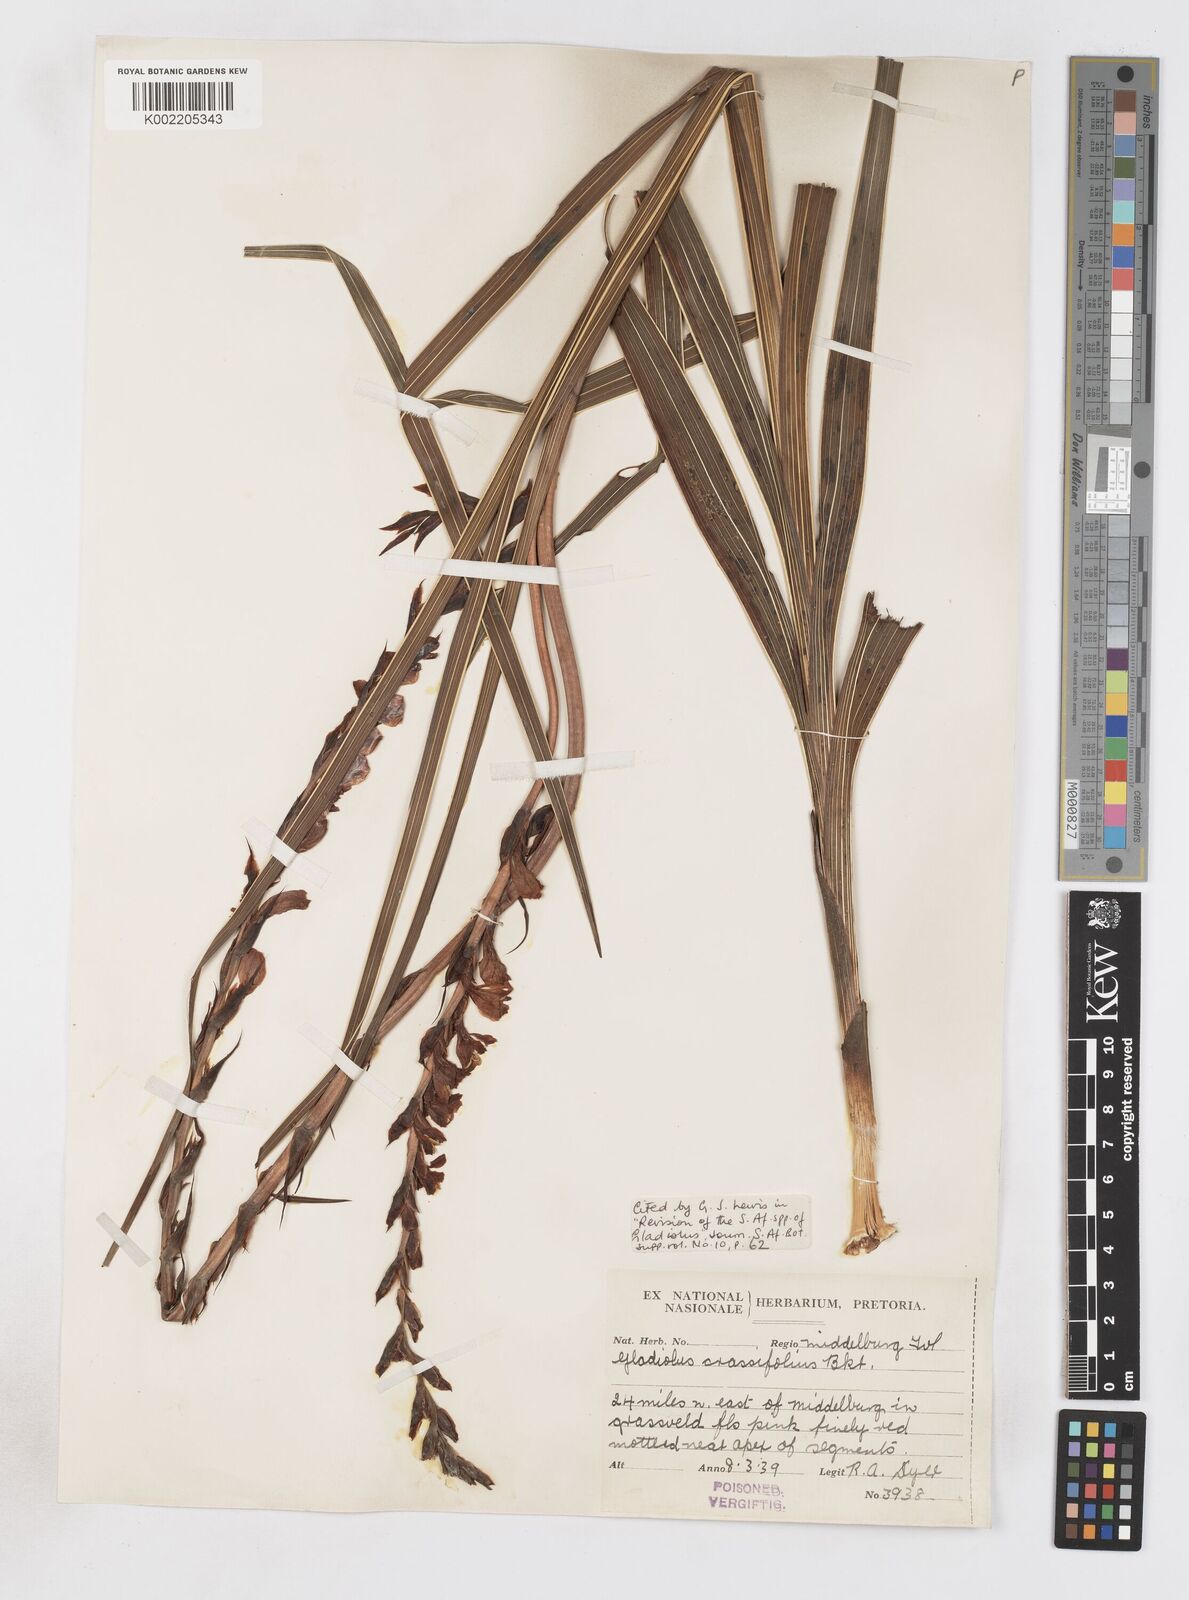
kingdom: Plantae
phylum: Tracheophyta
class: Liliopsida
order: Asparagales
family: Iridaceae
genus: Gladiolus
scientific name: Gladiolus crassifolius
